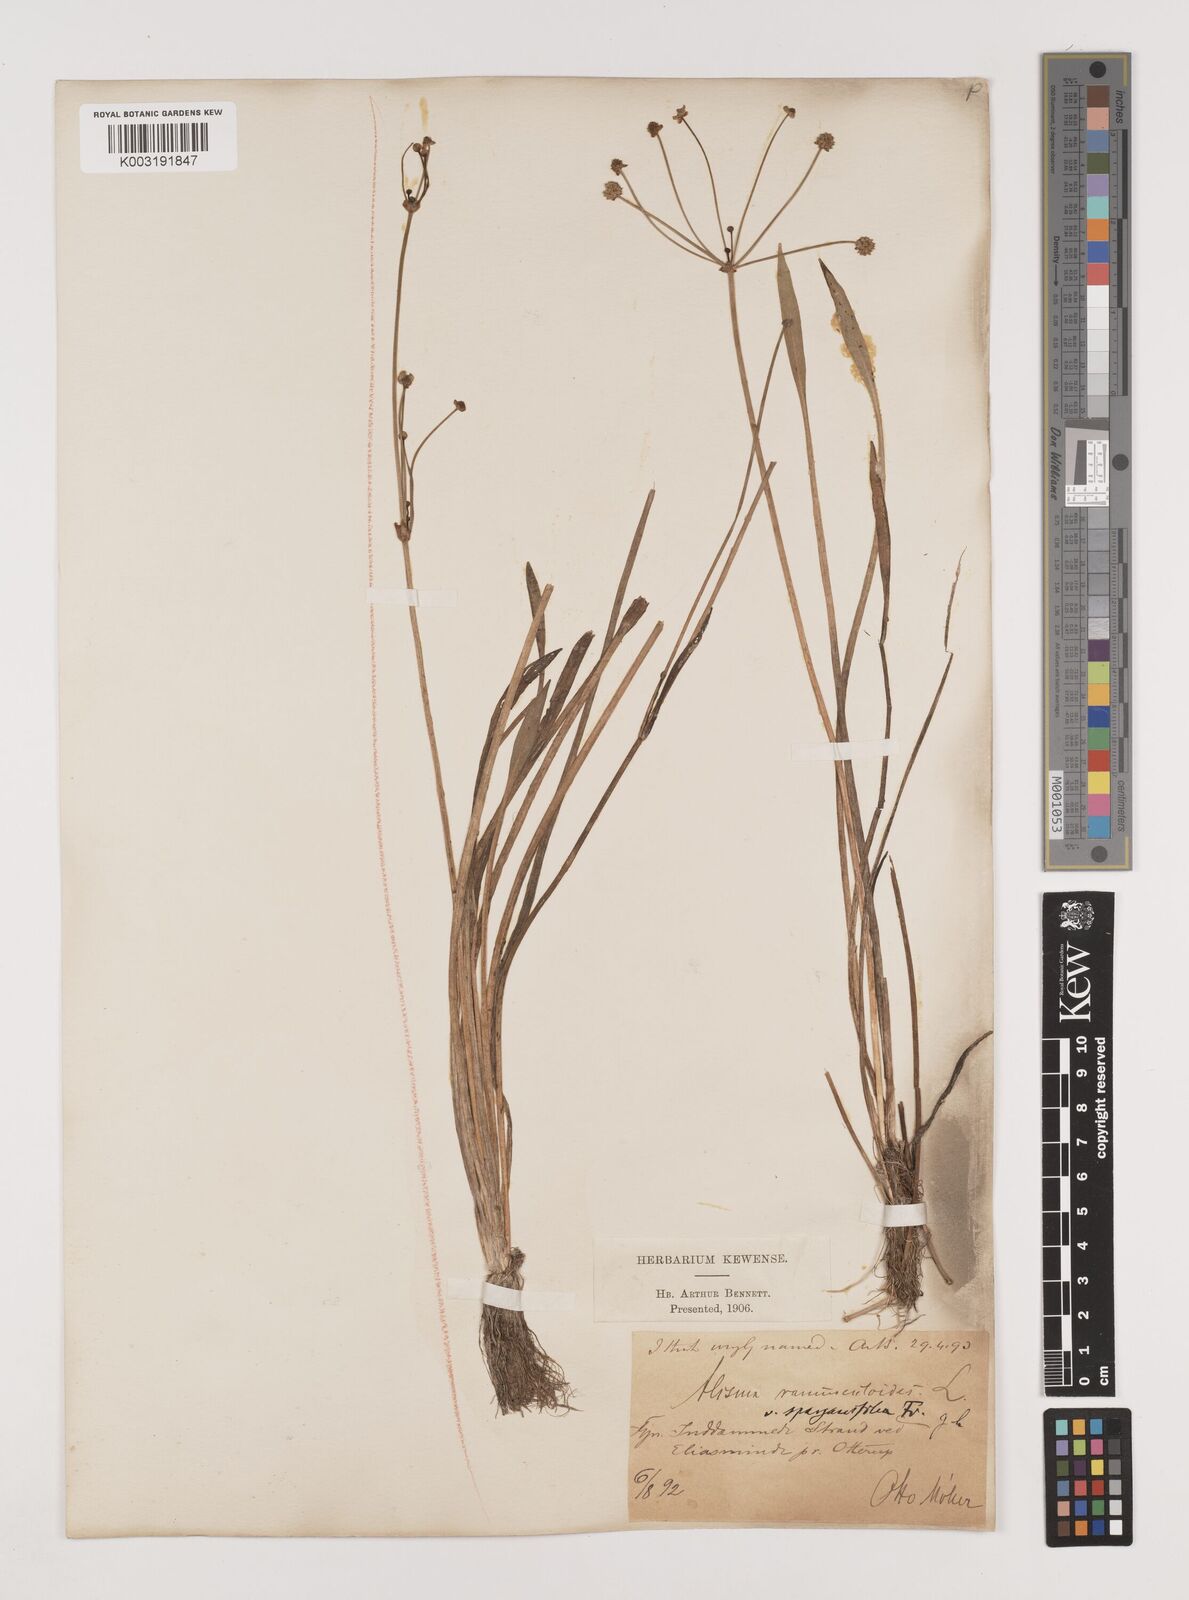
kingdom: Plantae
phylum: Tracheophyta
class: Liliopsida
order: Alismatales
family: Alismataceae
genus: Baldellia
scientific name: Baldellia ranunculoides
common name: Lesser water-plantain
